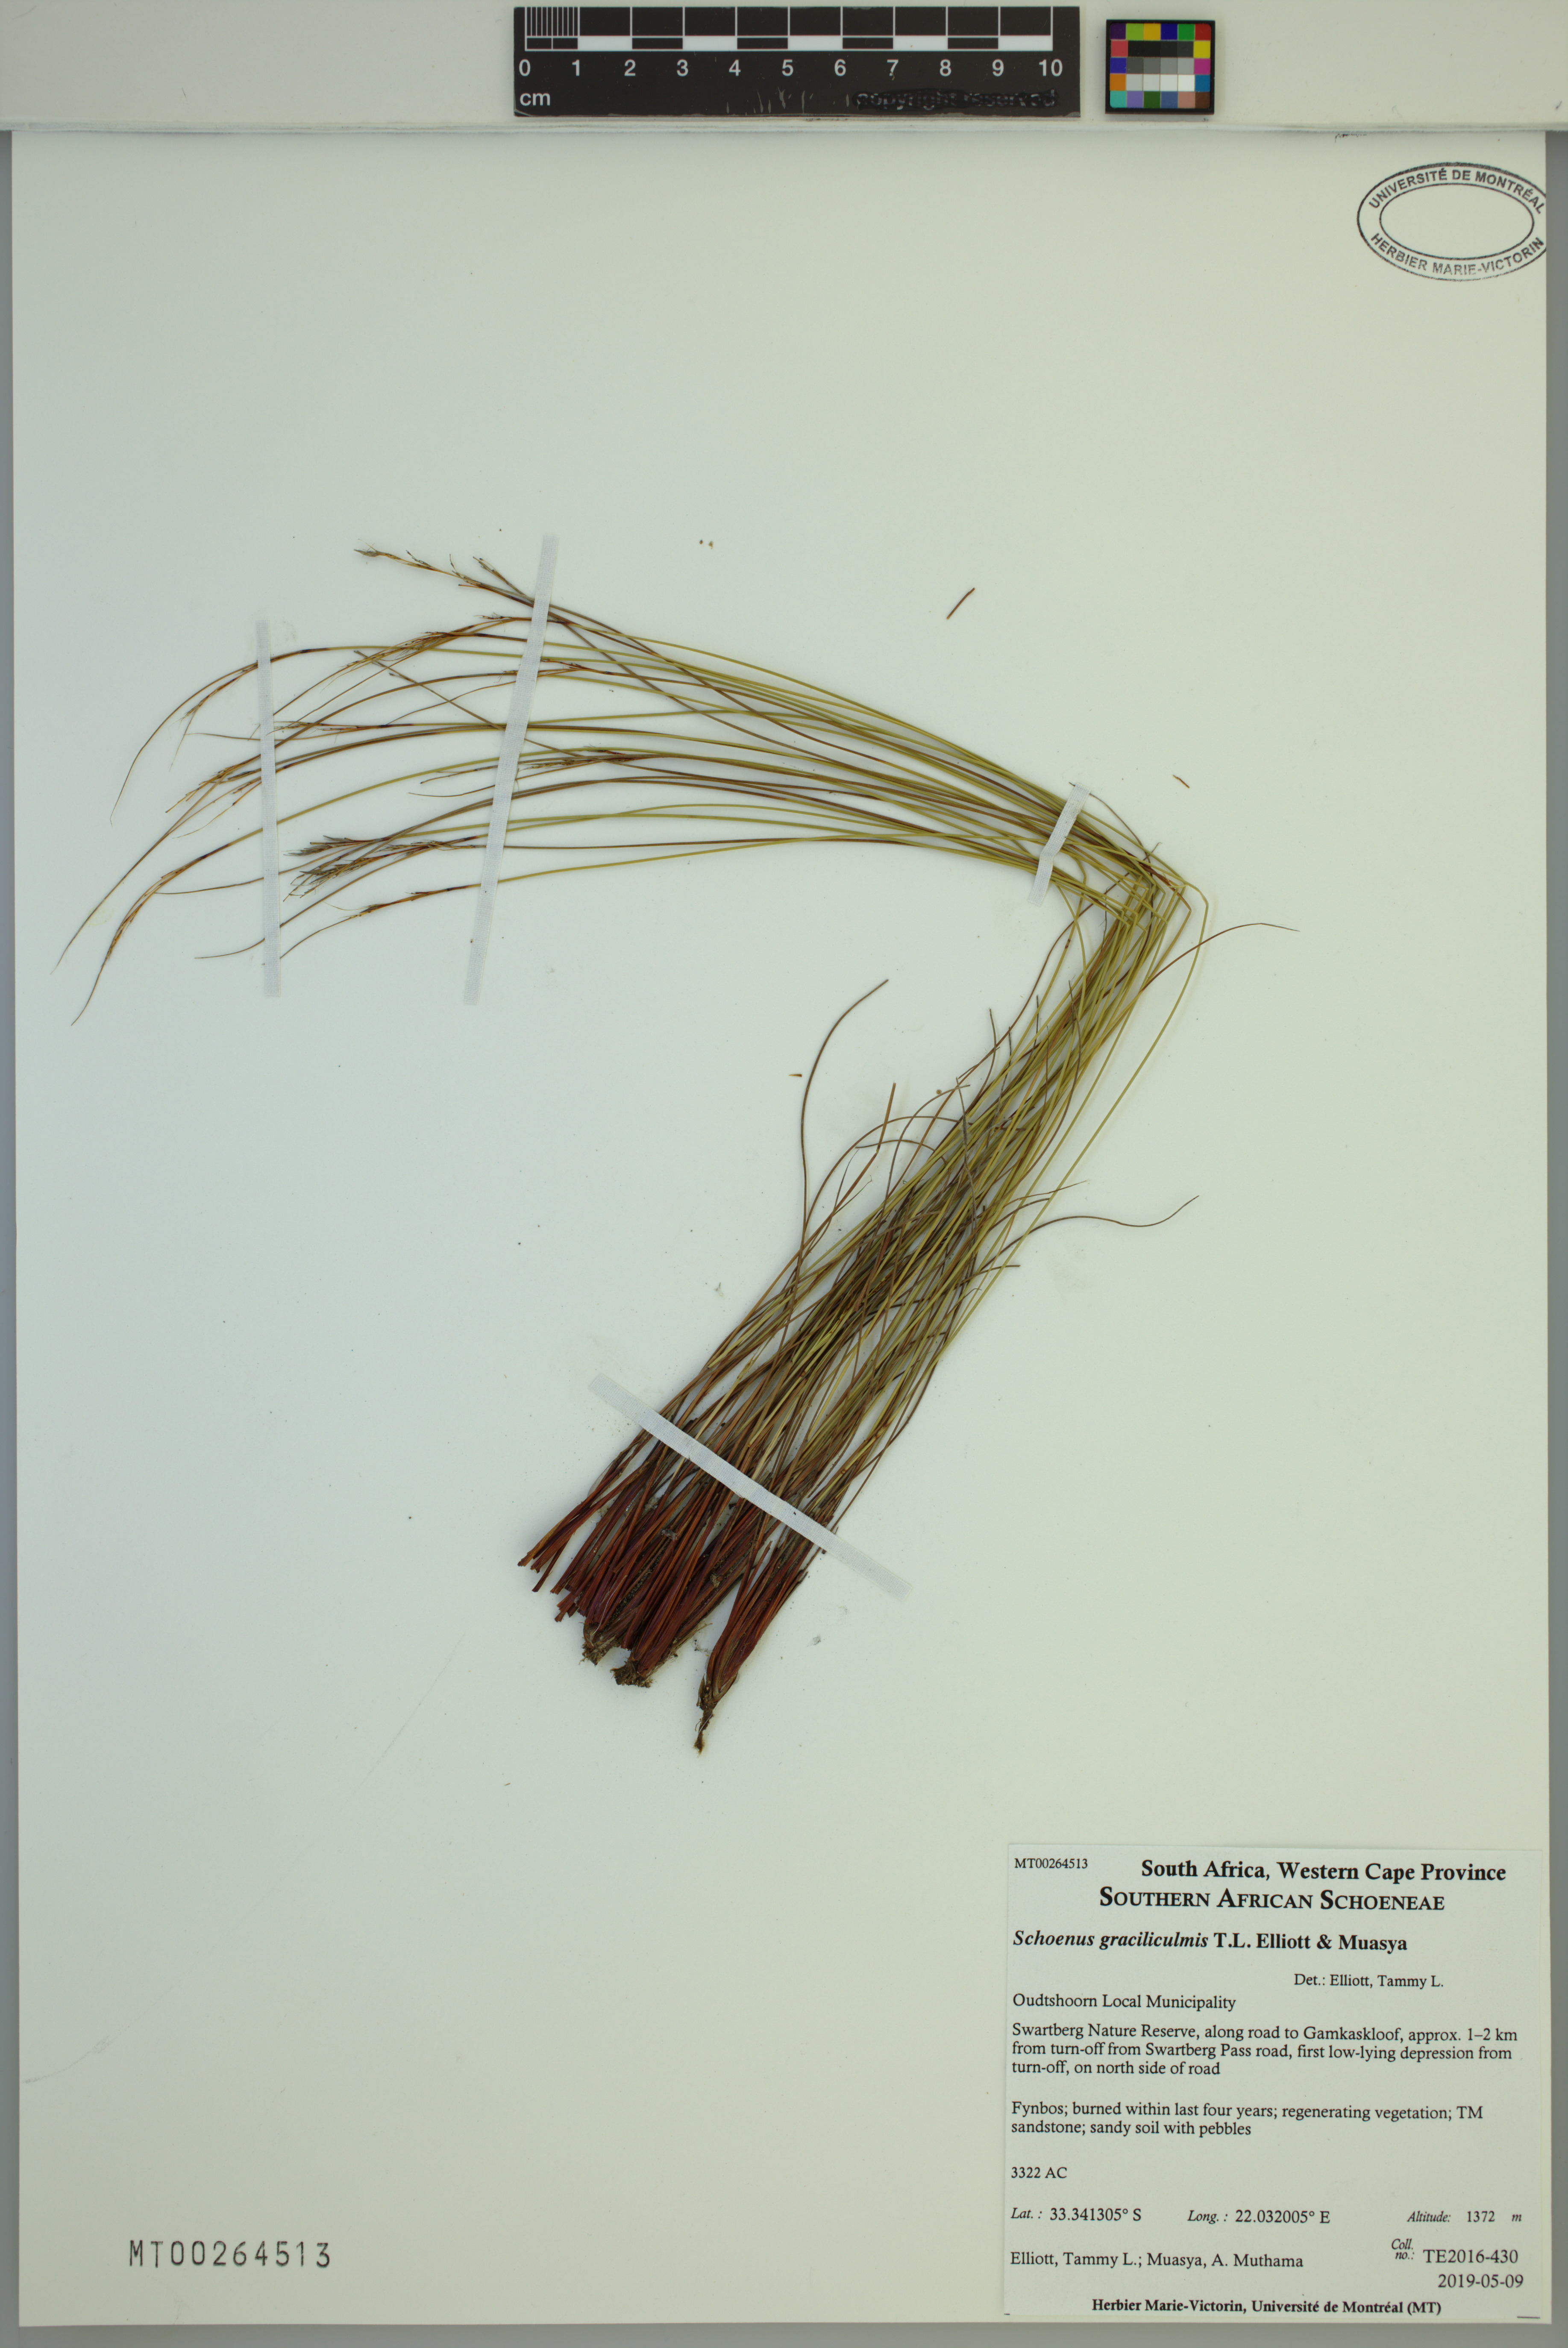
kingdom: Plantae
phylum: Tracheophyta
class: Liliopsida
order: Poales
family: Cyperaceae
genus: Schoenus
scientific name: Schoenus graciliculmis
